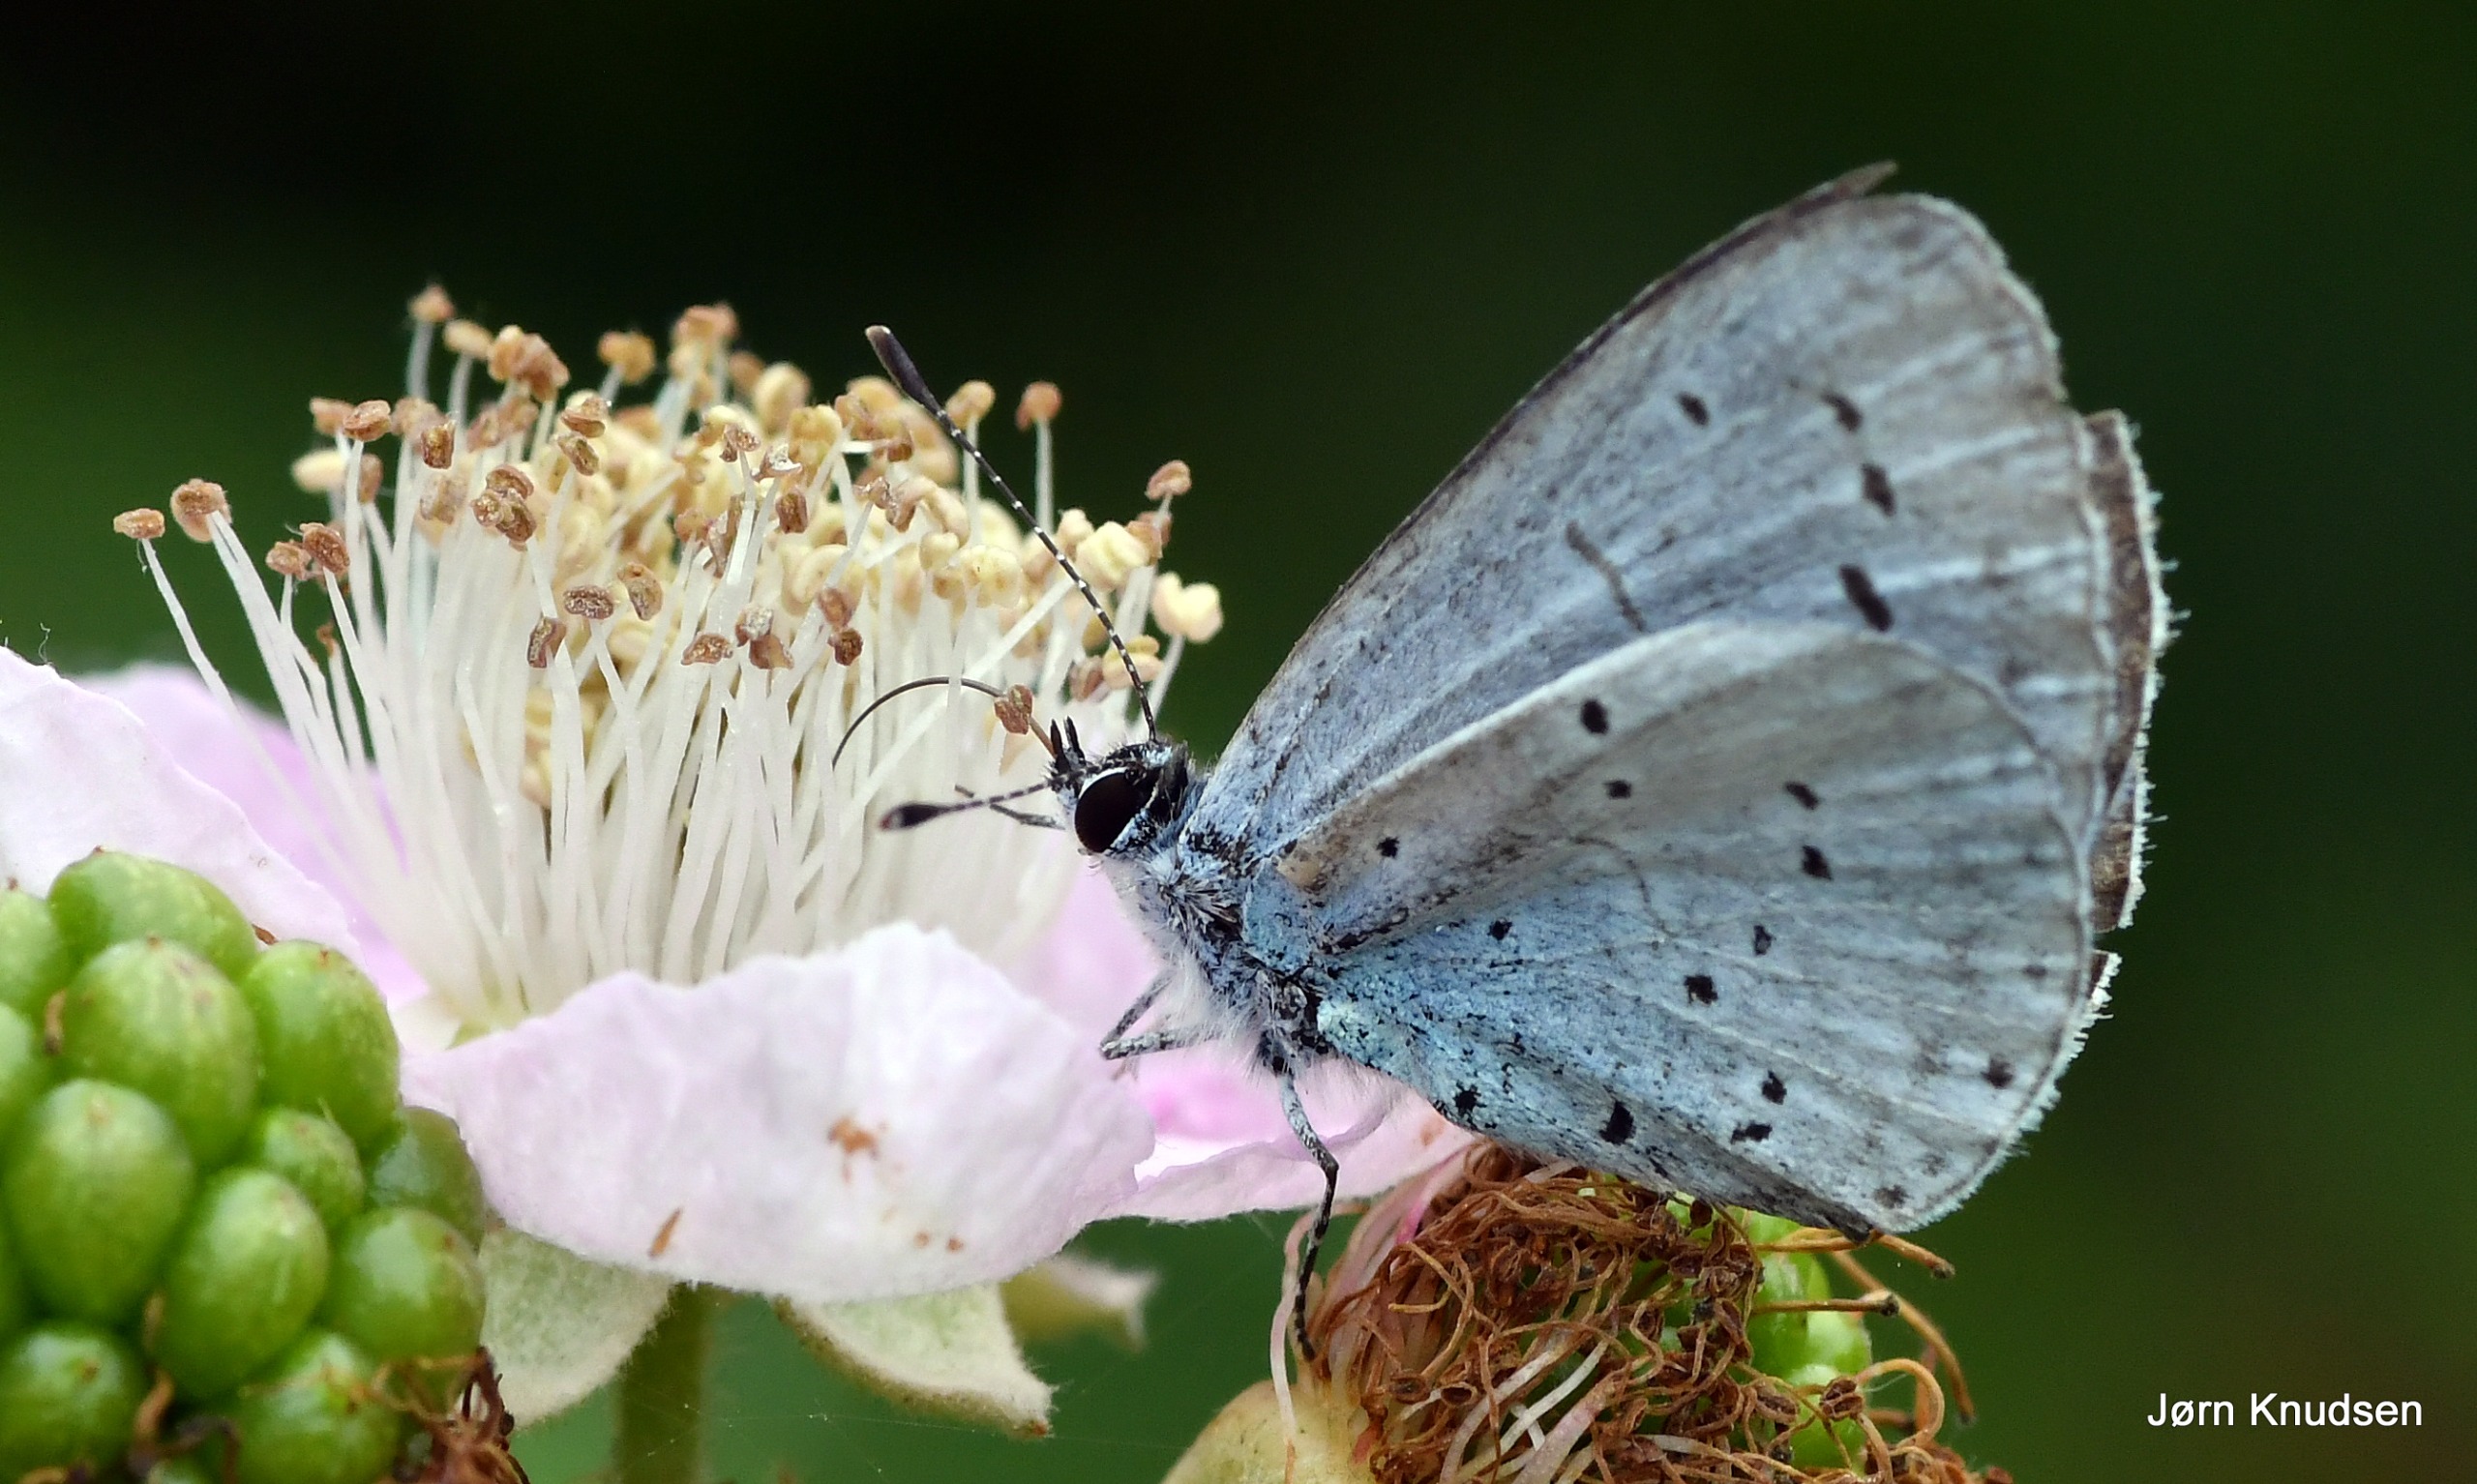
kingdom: Animalia
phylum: Arthropoda
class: Insecta
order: Lepidoptera
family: Lycaenidae
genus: Celastrina
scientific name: Celastrina argiolus
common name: Skovblåfugl
